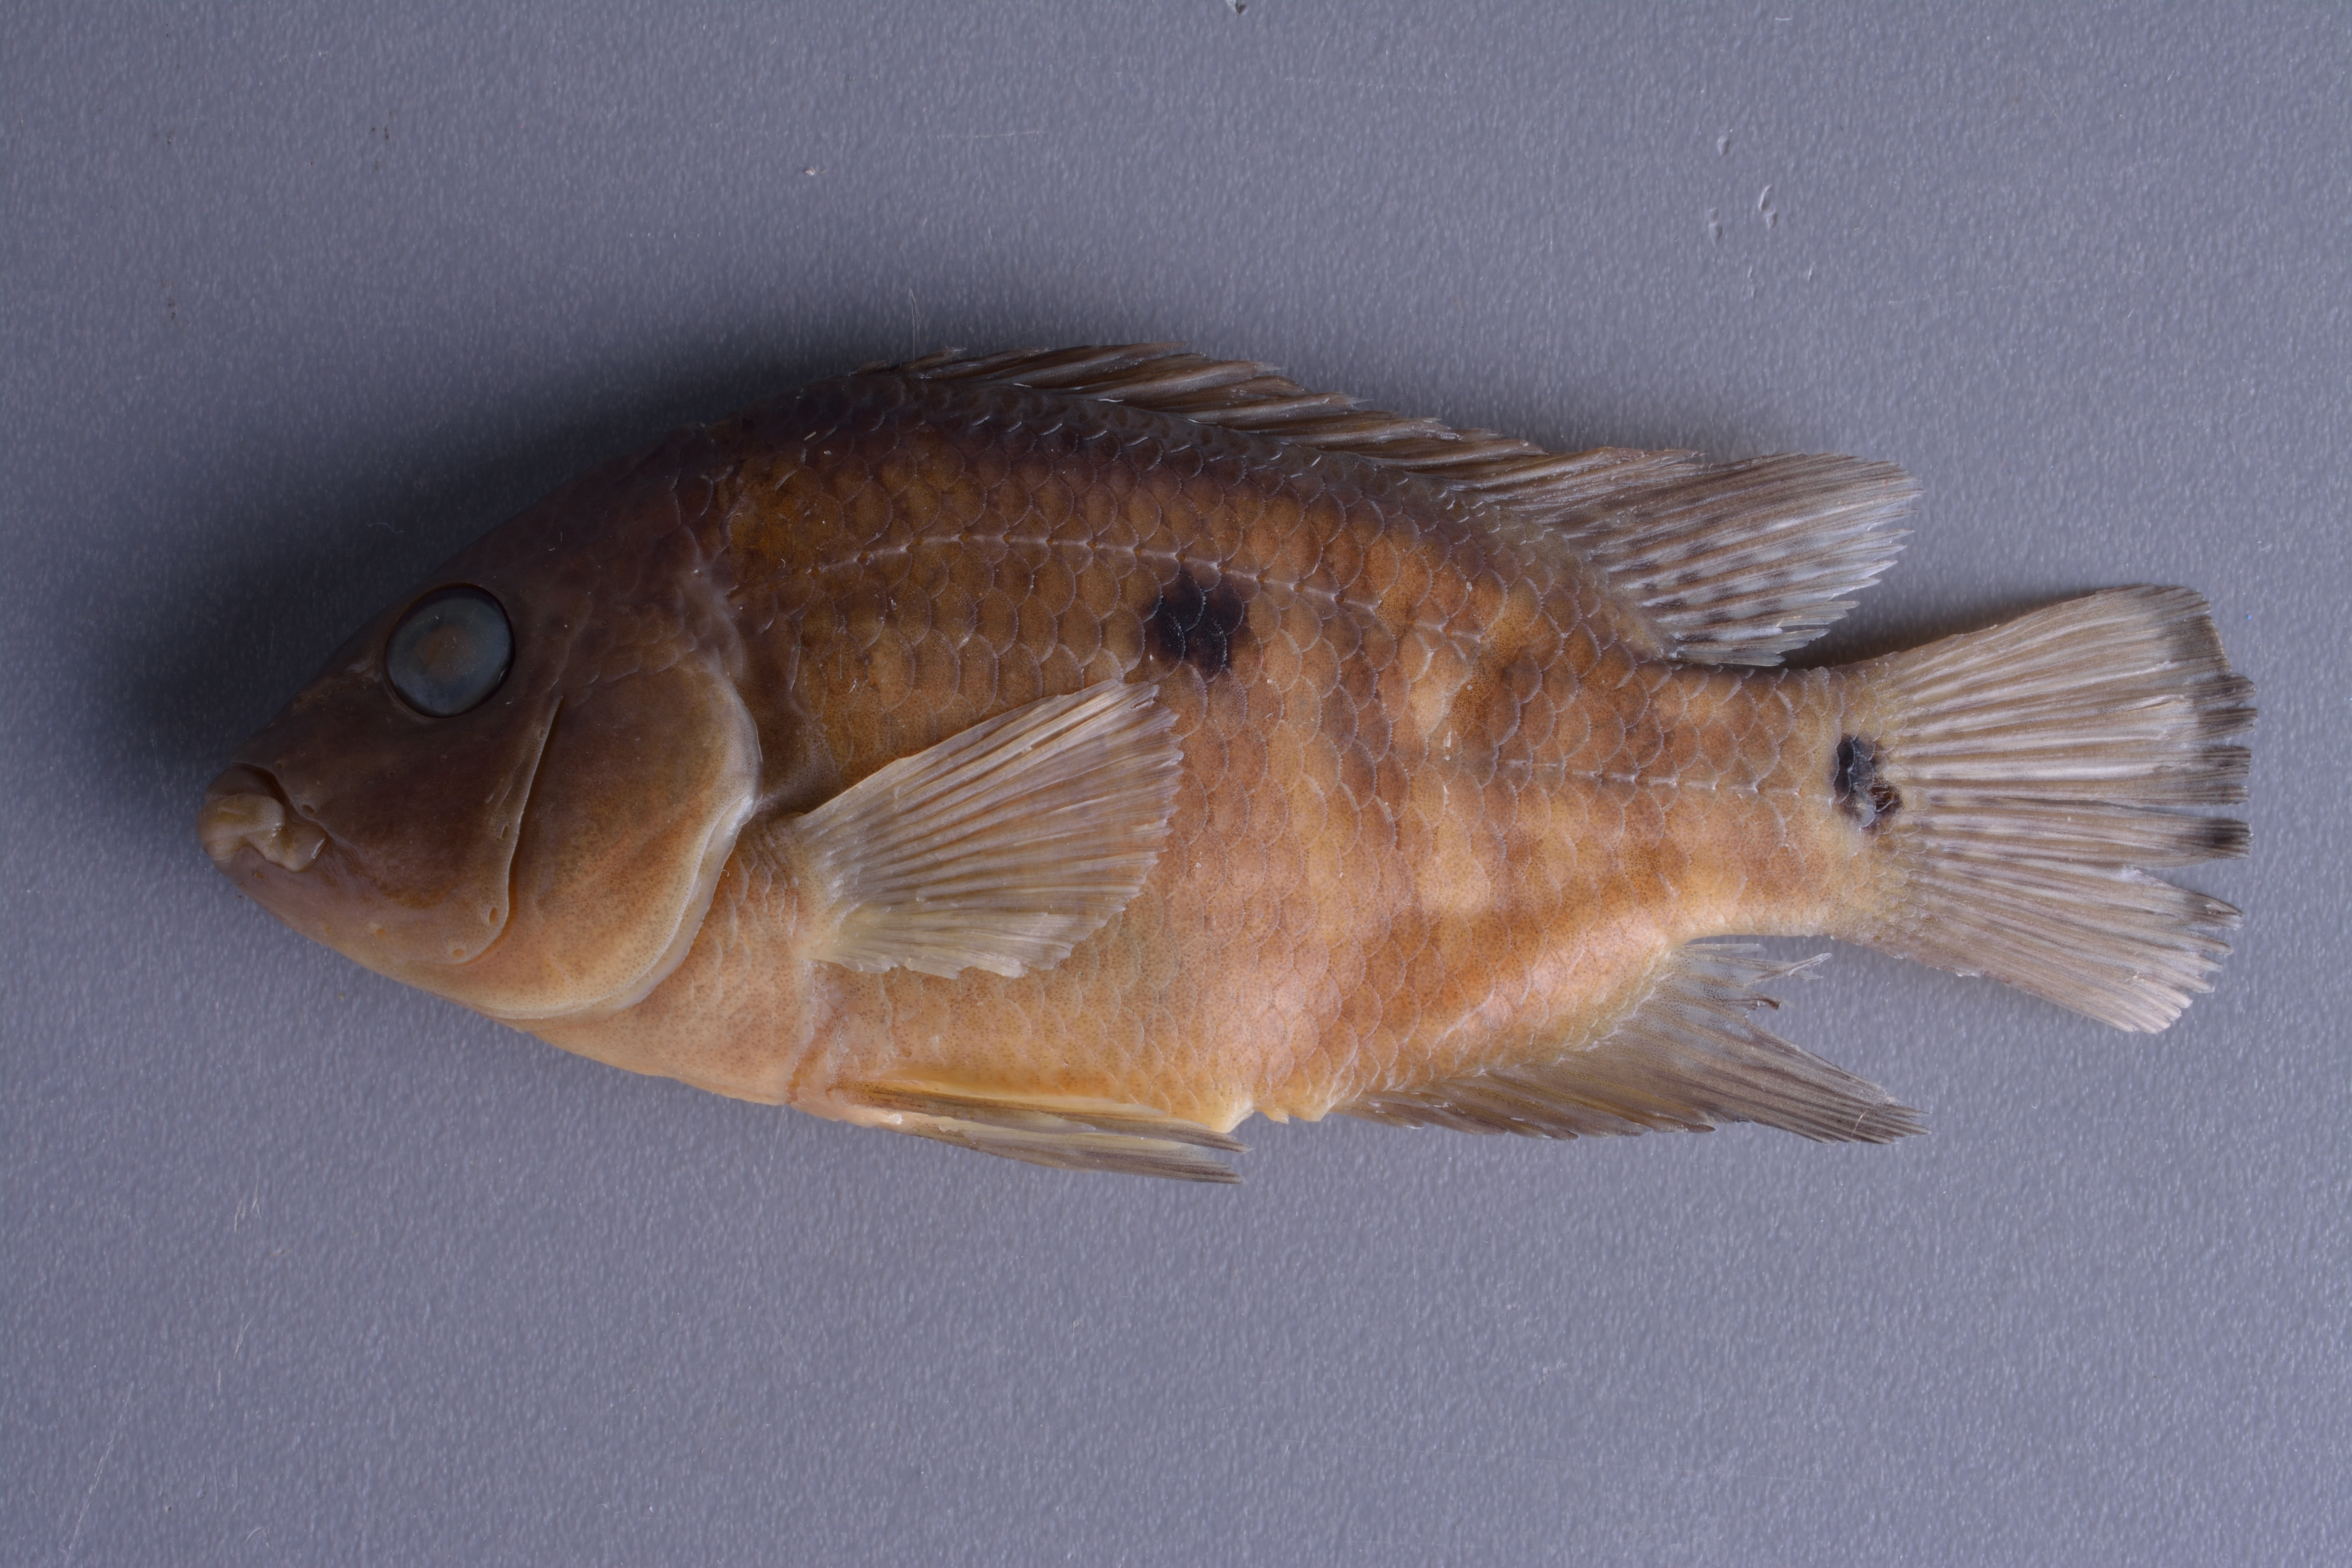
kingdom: Animalia
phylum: Chordata
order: Perciformes
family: Cichlidae
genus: Herichthys
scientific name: Herichthys cyanoguttatus
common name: Rio grande cichlid
